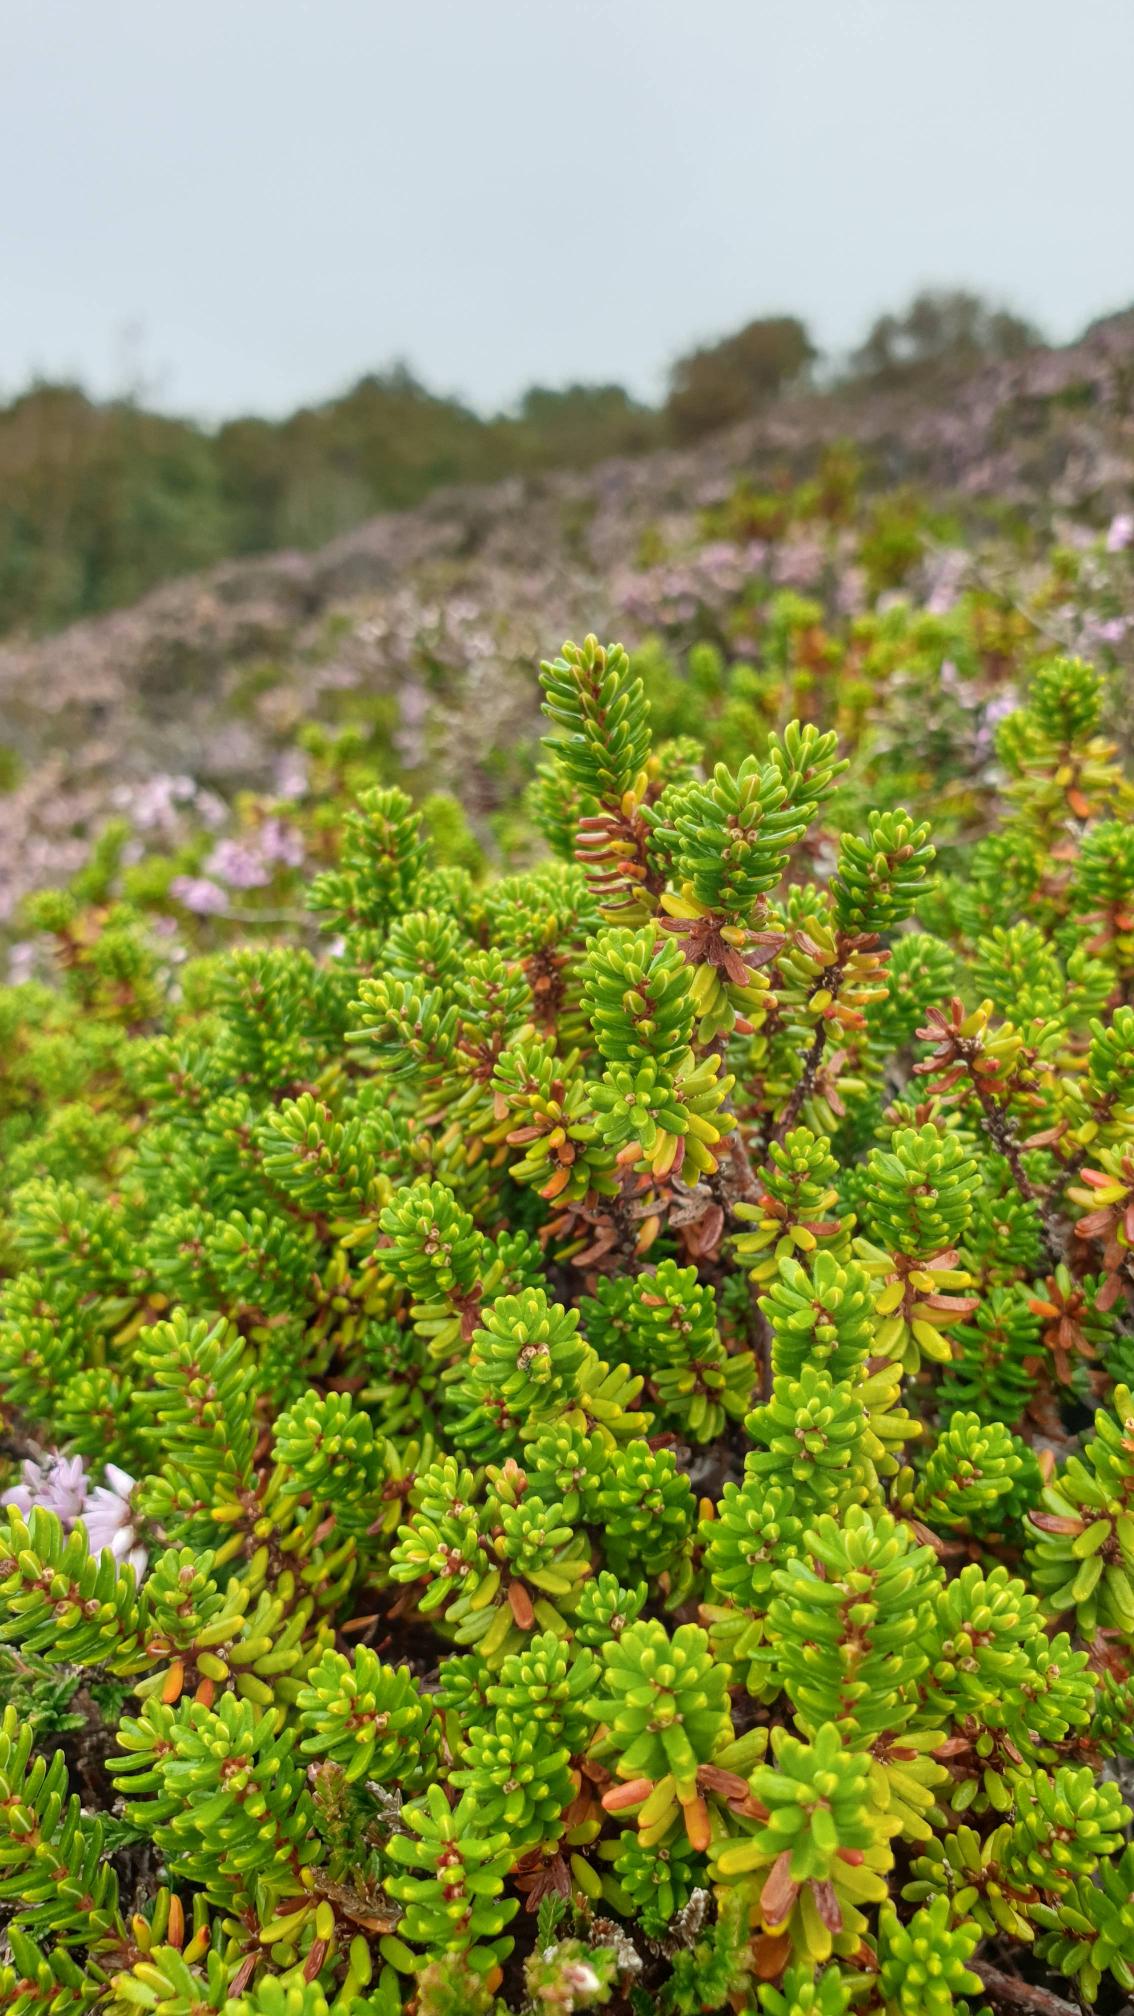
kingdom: Plantae
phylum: Tracheophyta
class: Magnoliopsida
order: Ericales
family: Ericaceae
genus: Empetrum
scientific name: Empetrum nigrum
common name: Revling
